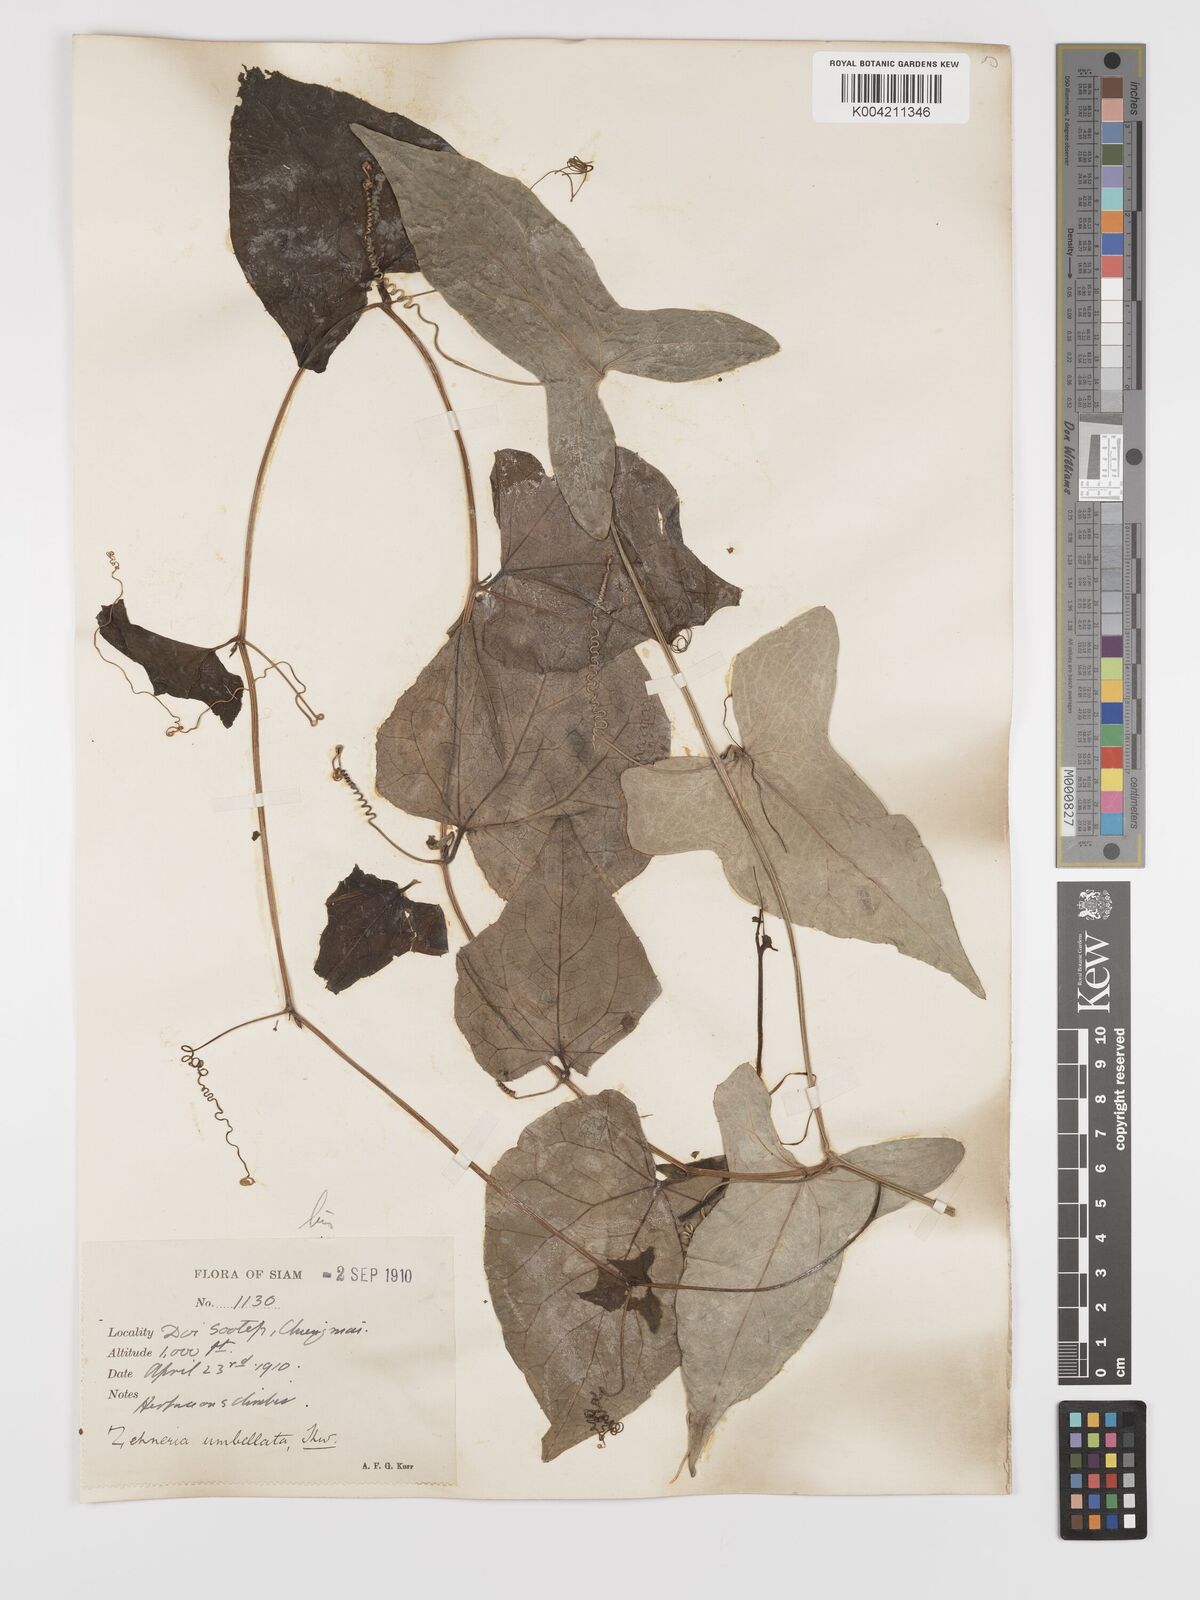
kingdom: Plantae
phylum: Tracheophyta
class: Magnoliopsida
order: Cucurbitales
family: Cucurbitaceae
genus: Solena
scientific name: Solena amplexicaulis
